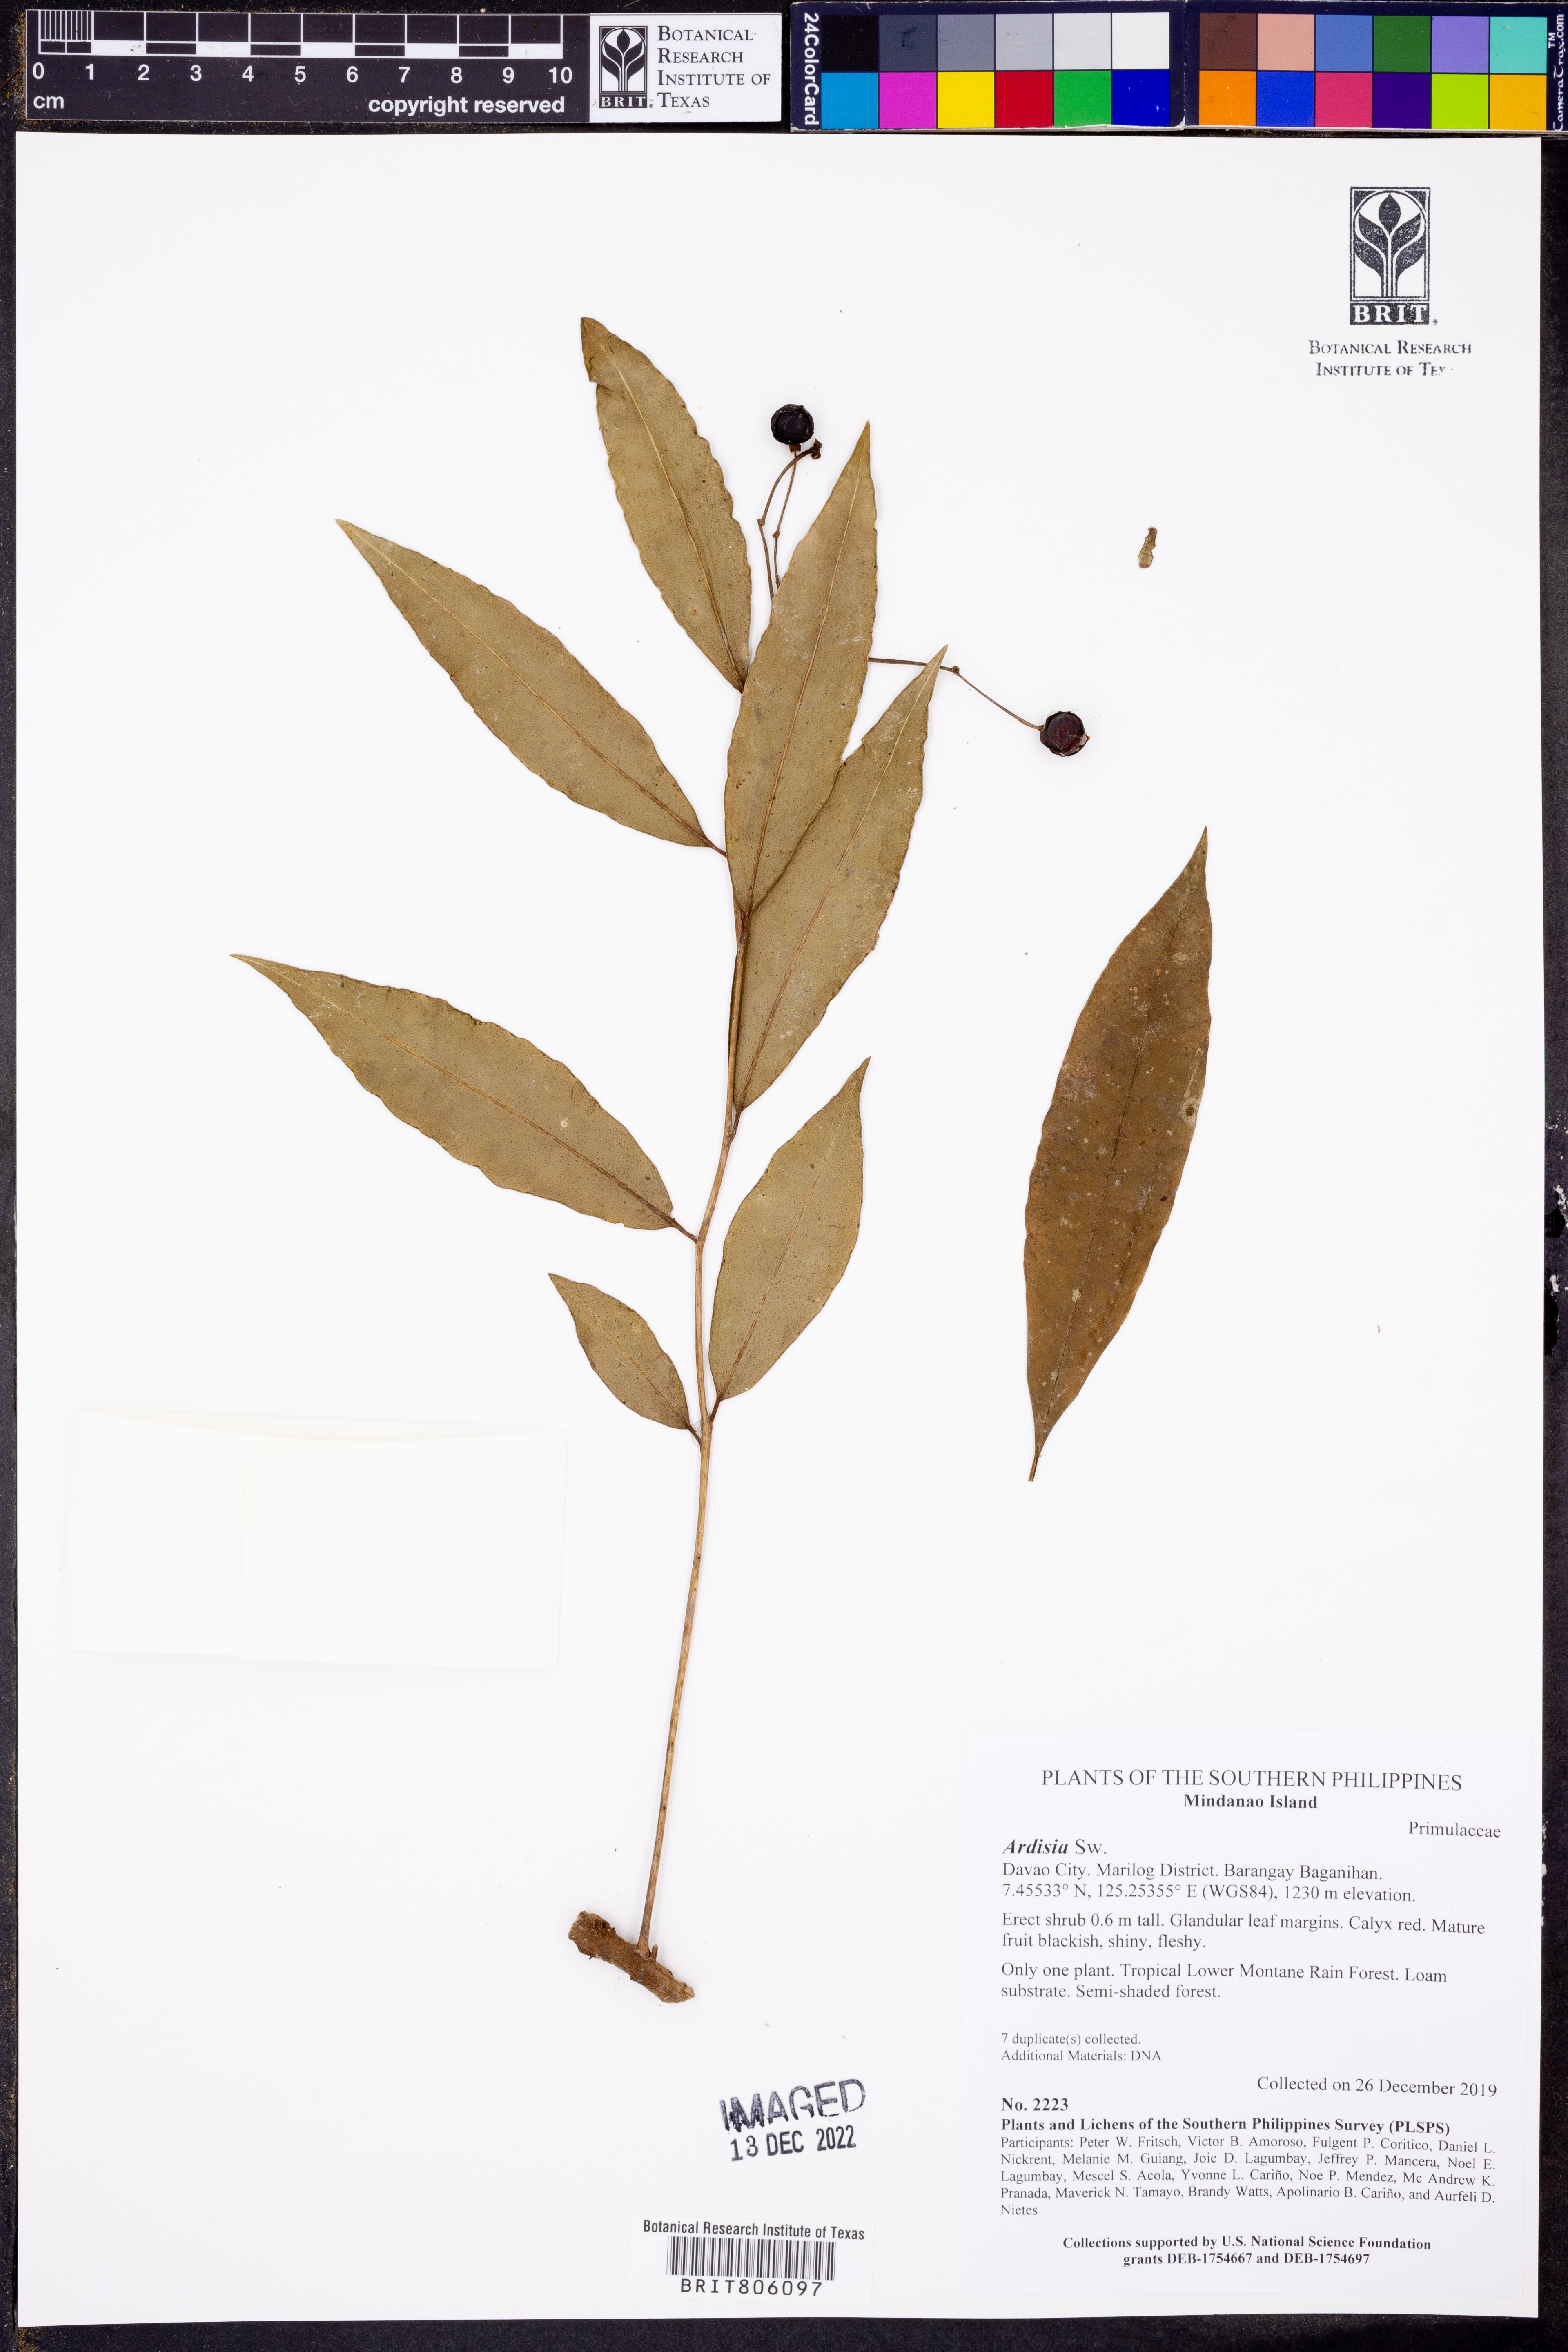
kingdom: Plantae
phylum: Tracheophyta
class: Magnoliopsida
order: Ericales
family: Primulaceae
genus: Ardisia
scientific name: Ardisia
